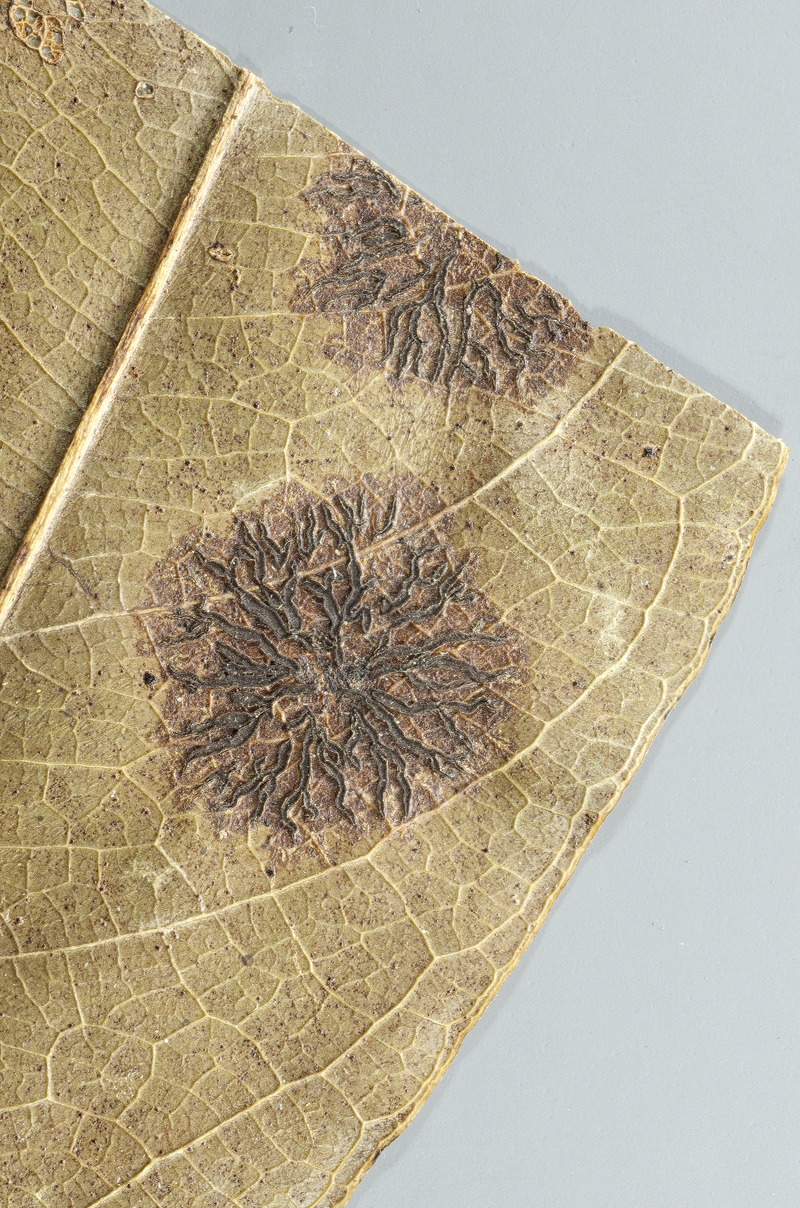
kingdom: Fungi
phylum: Ascomycota
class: Dothideomycetes
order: Asterinales
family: Parmulariaceae
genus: Aldona
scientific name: Aldona americana
